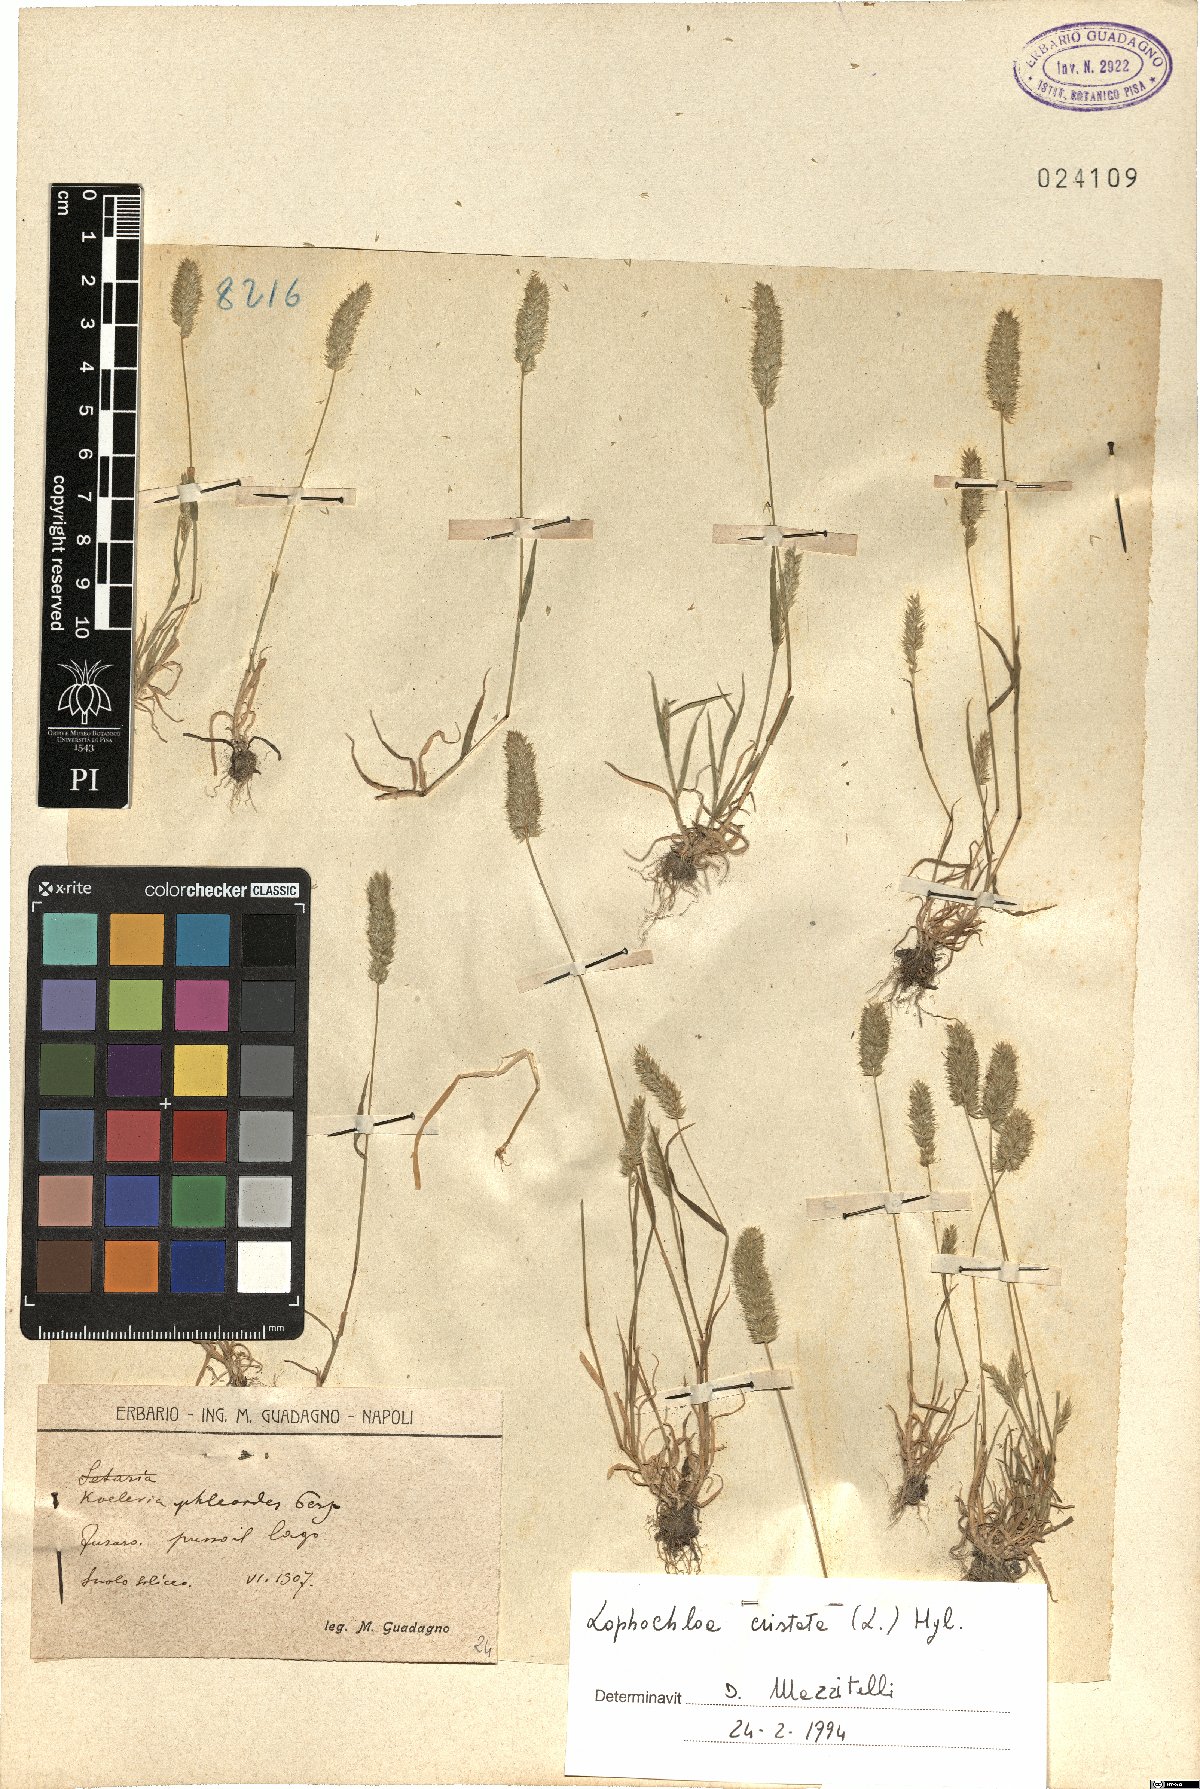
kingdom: Plantae
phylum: Tracheophyta
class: Liliopsida
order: Poales
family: Poaceae
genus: Rostraria
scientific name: Rostraria cristata
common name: Mediterranean hair-grass
